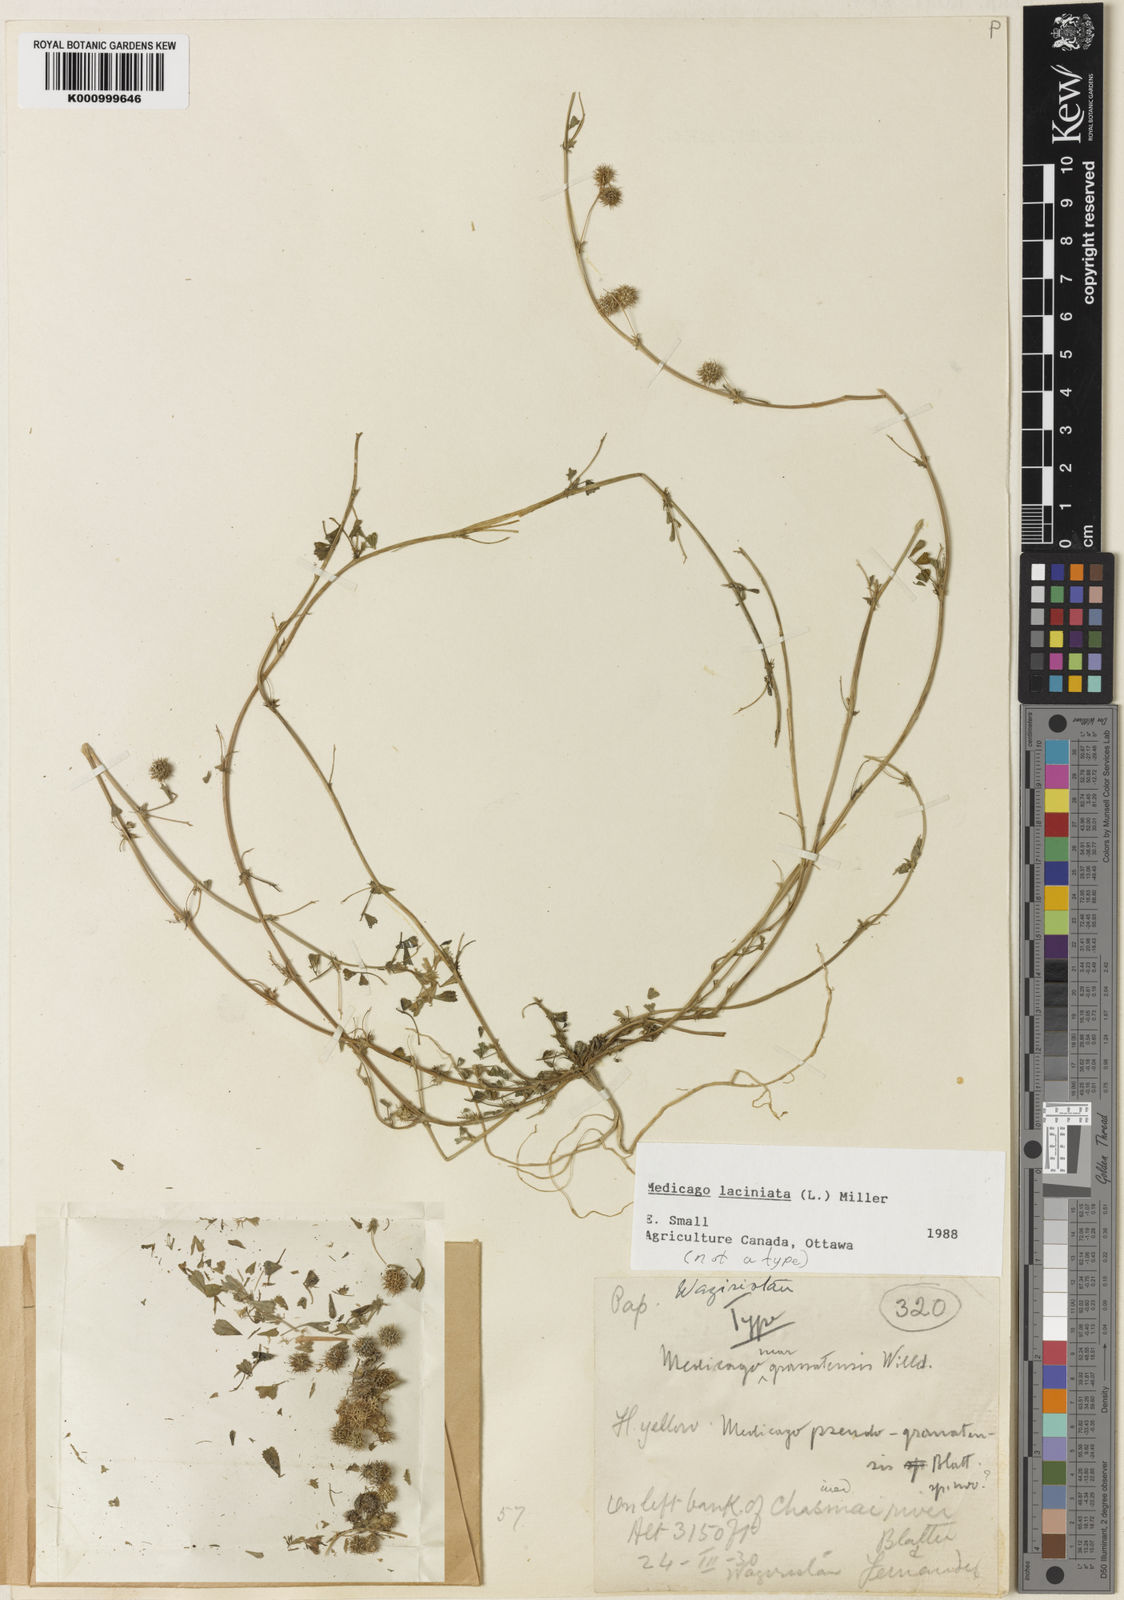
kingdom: Plantae
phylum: Tracheophyta
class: Magnoliopsida
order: Fabales
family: Fabaceae
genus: Medicago
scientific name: Medicago
